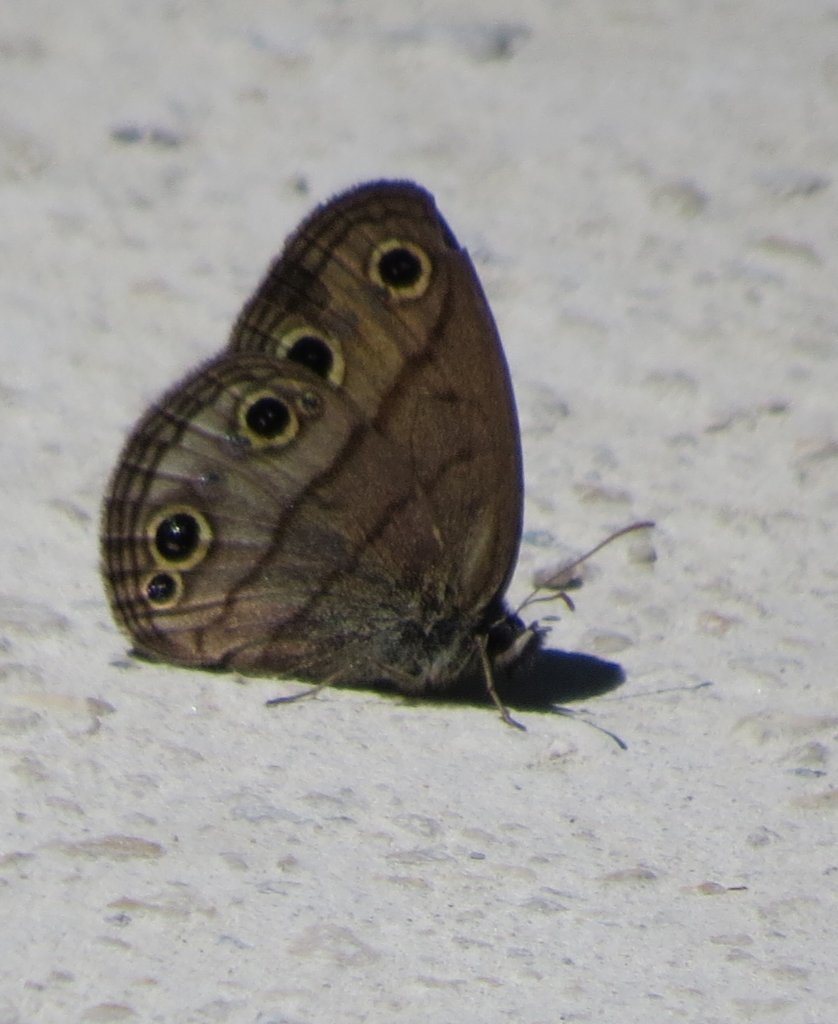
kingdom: Animalia
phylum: Arthropoda
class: Insecta
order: Lepidoptera
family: Nymphalidae
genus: Euptychia
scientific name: Euptychia cymela
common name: Little Wood Satyr
